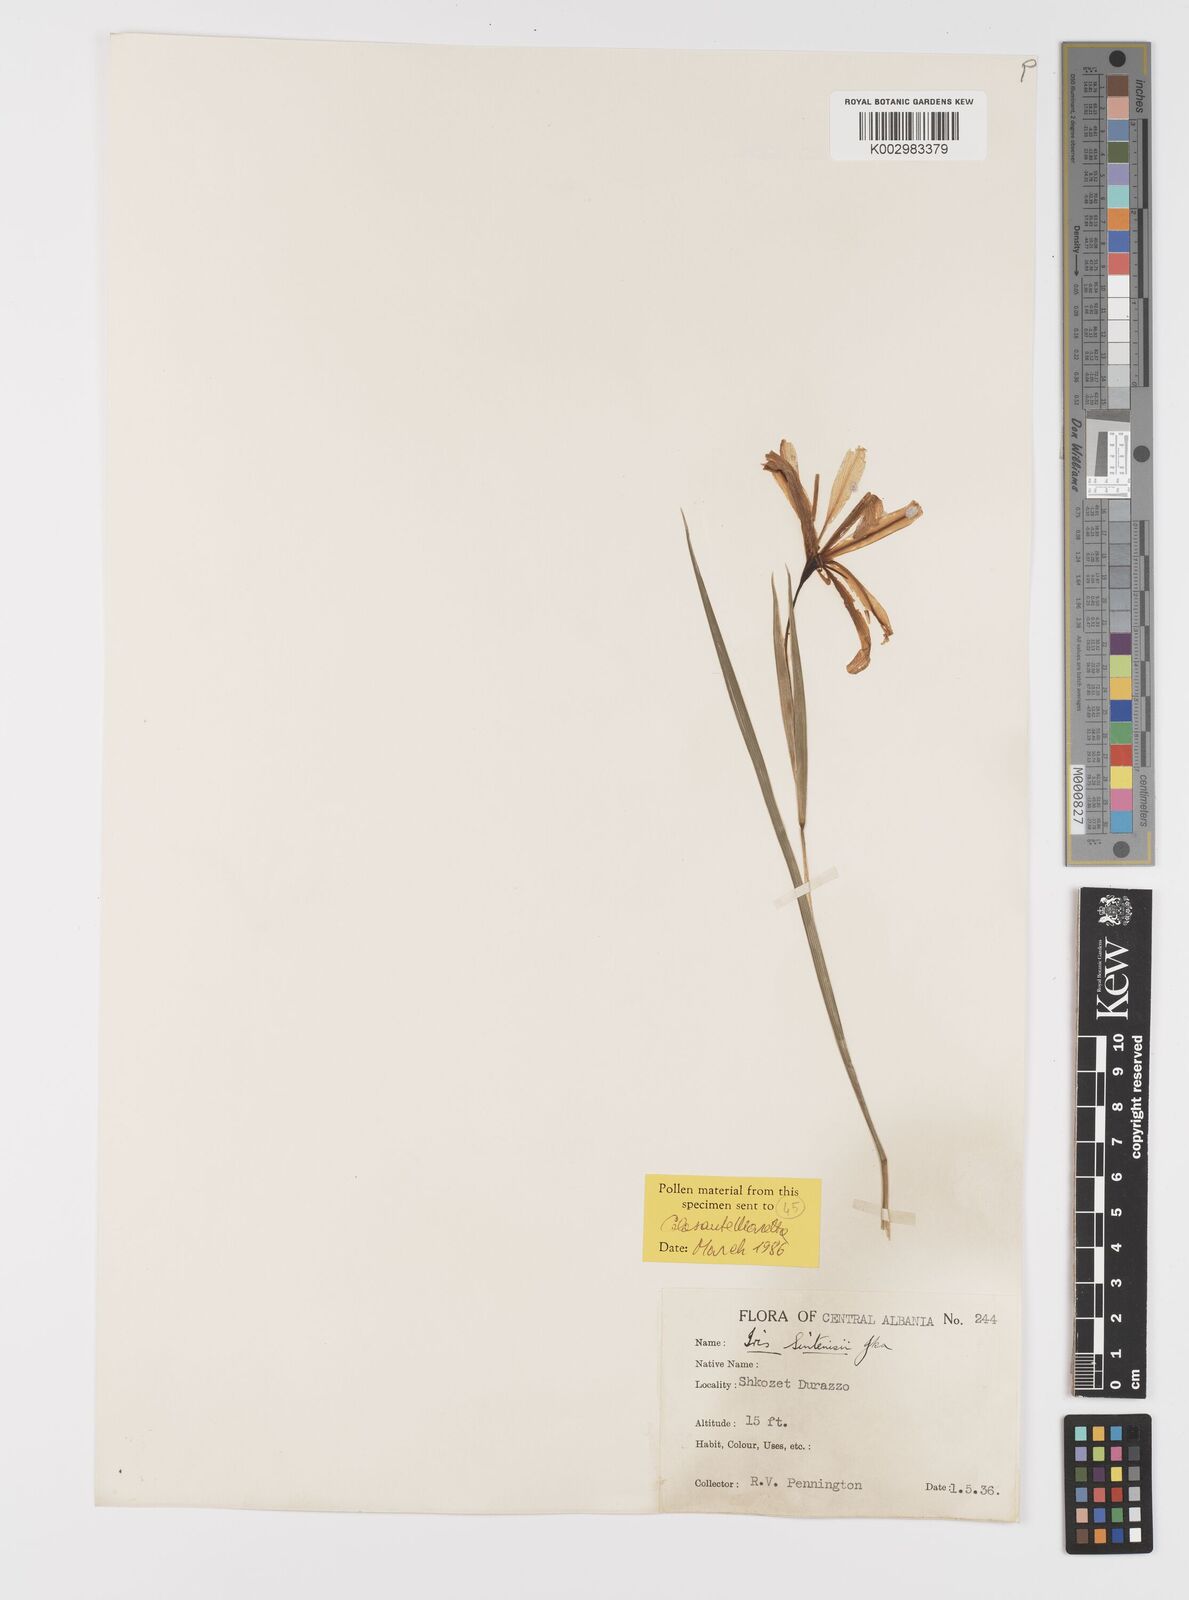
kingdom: Plantae
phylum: Tracheophyta
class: Liliopsida
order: Asparagales
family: Iridaceae
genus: Iris
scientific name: Iris sintenisii
